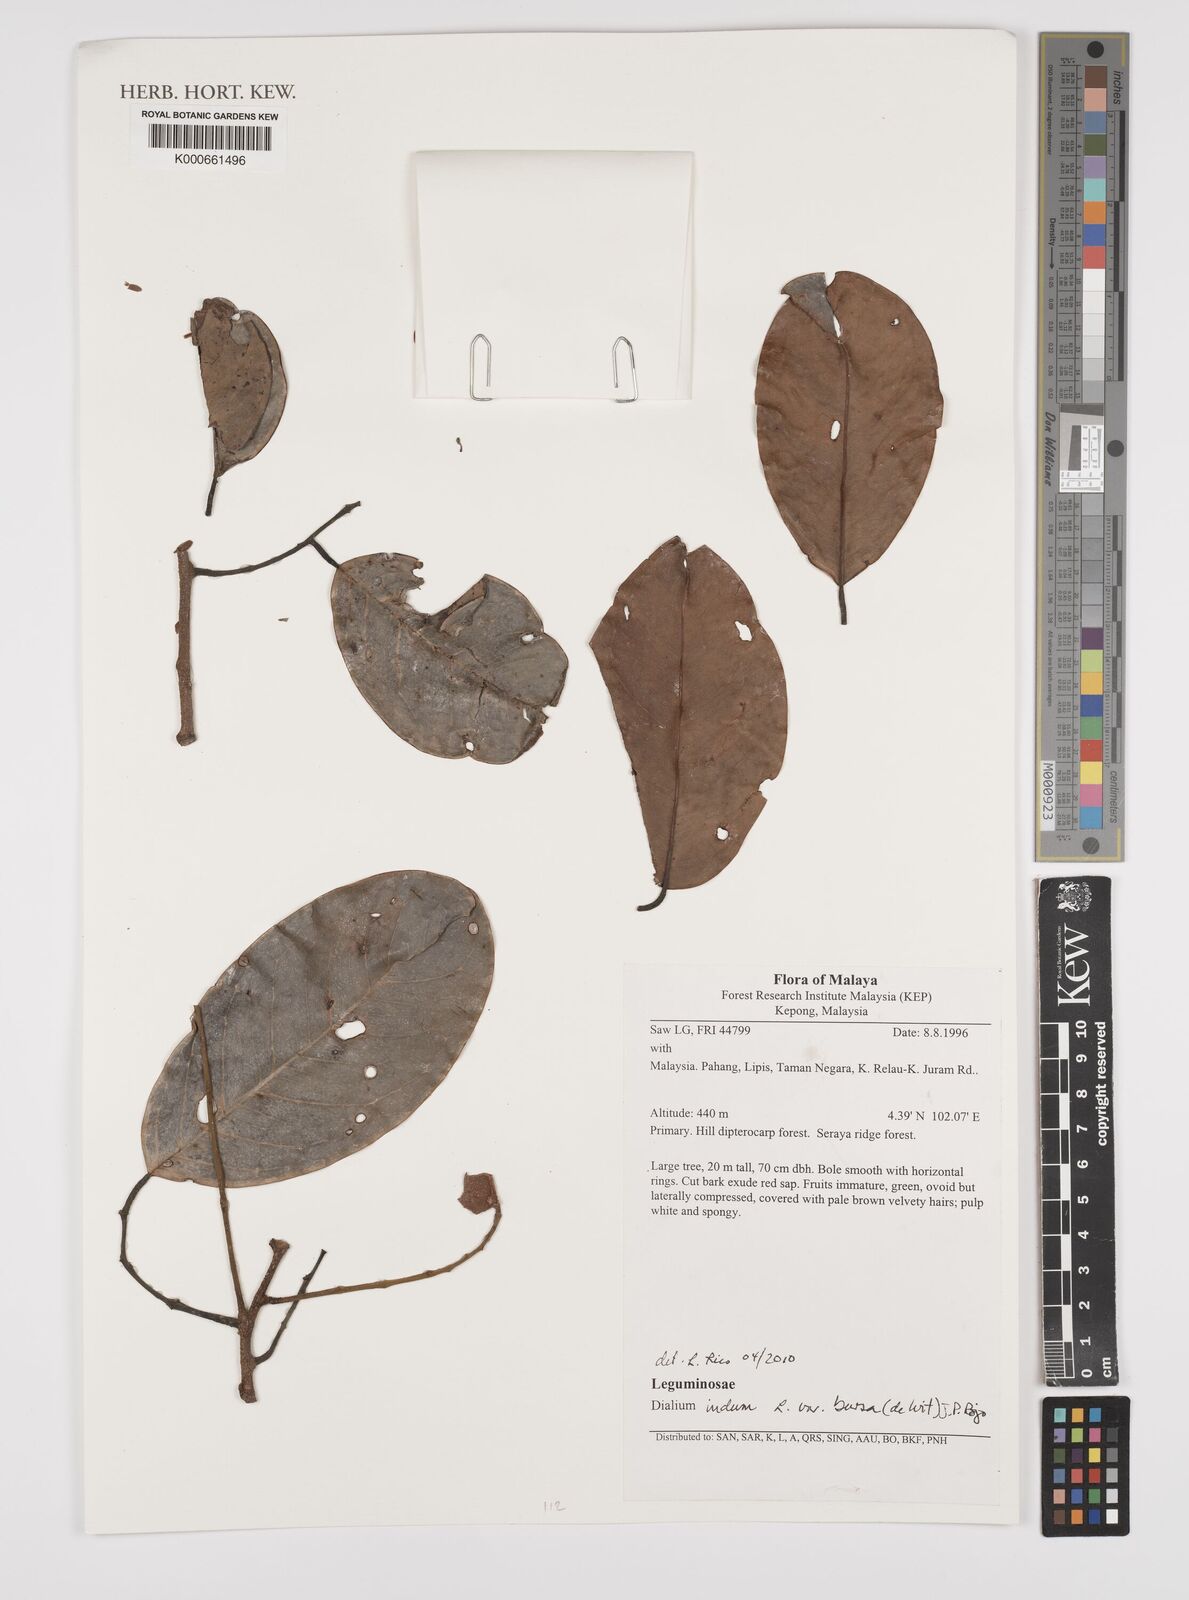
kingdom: Plantae
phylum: Tracheophyta
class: Magnoliopsida
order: Fabales
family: Fabaceae
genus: Dialium
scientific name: Dialium indum
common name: Tamarind-plum
